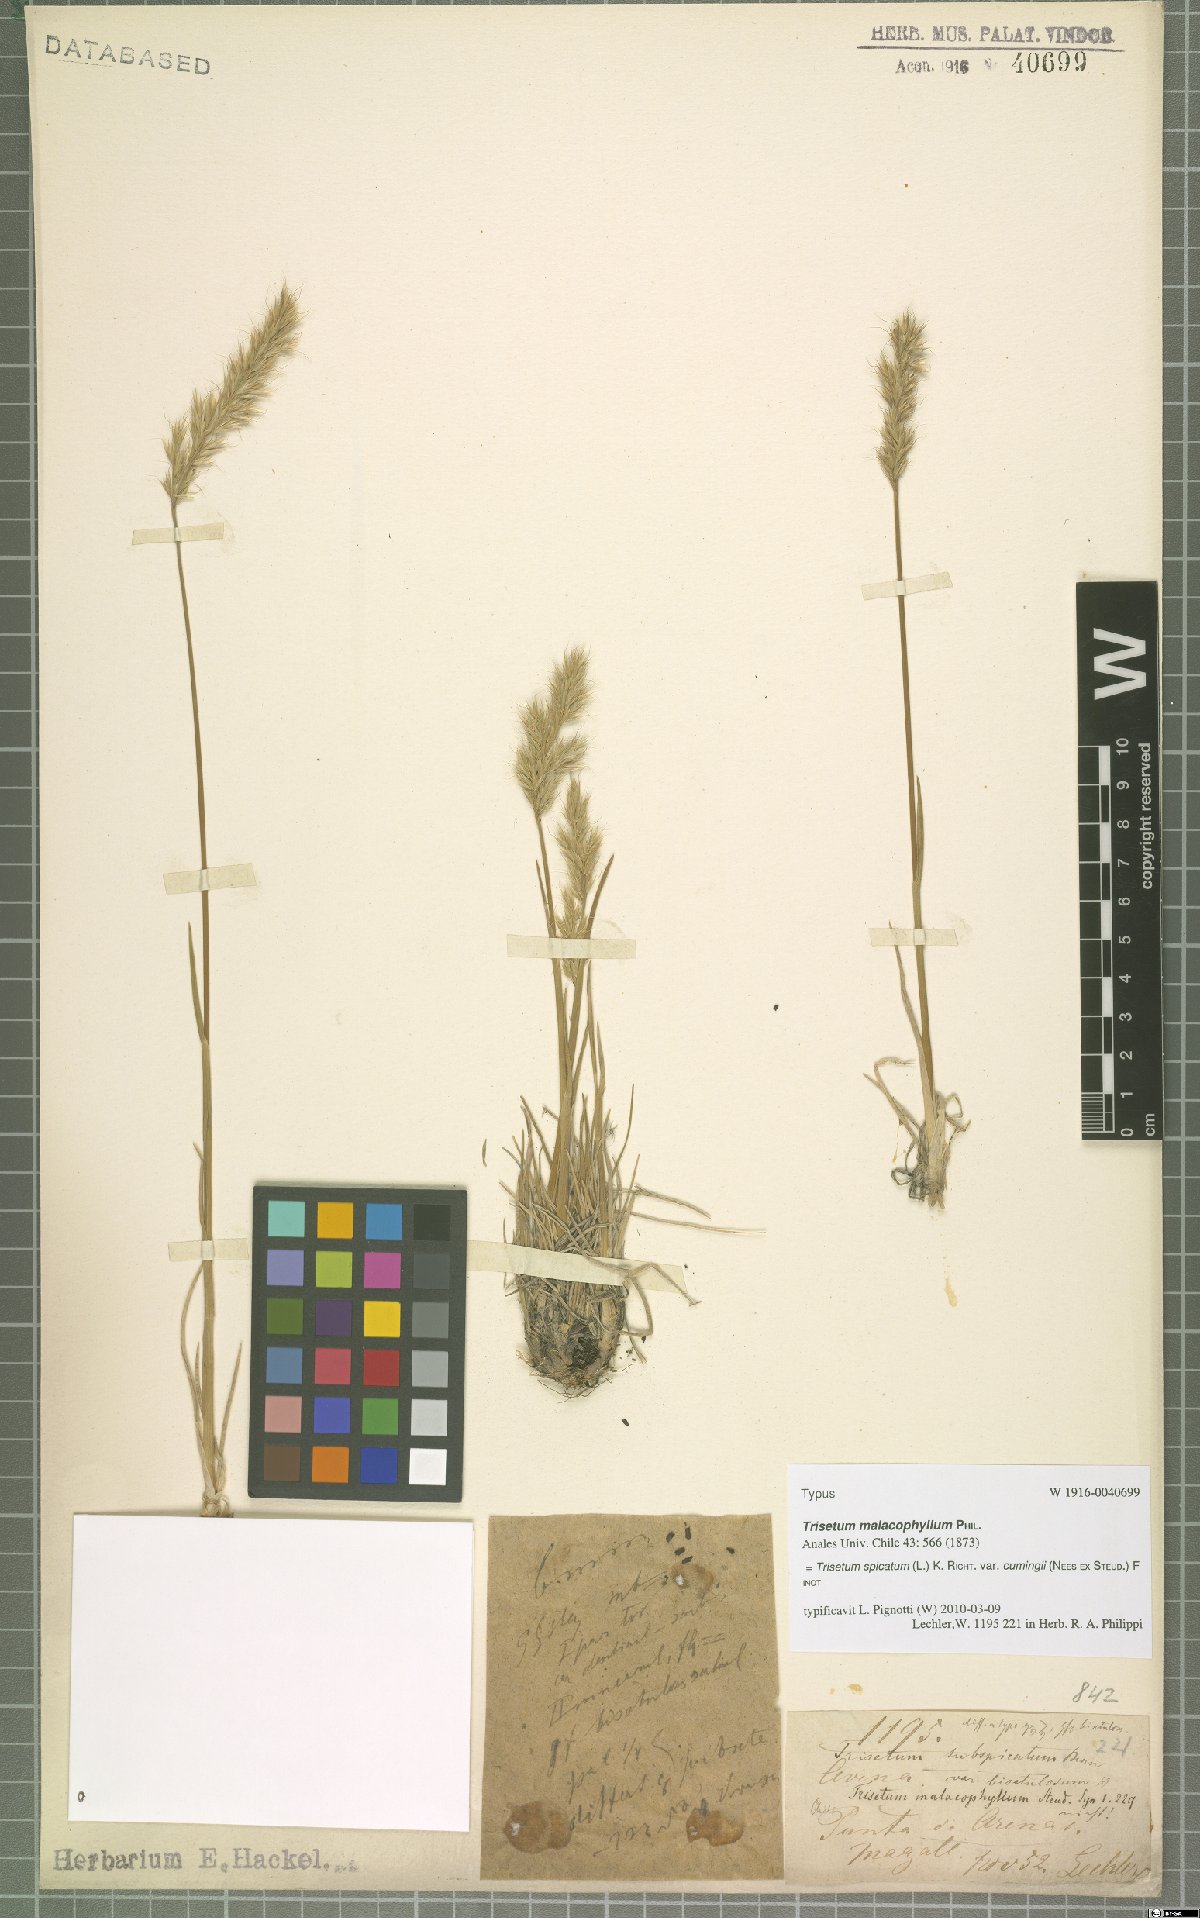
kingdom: Plantae
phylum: Tracheophyta
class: Liliopsida
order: Poales
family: Poaceae
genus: Koeleria
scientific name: Koeleria cumingii
